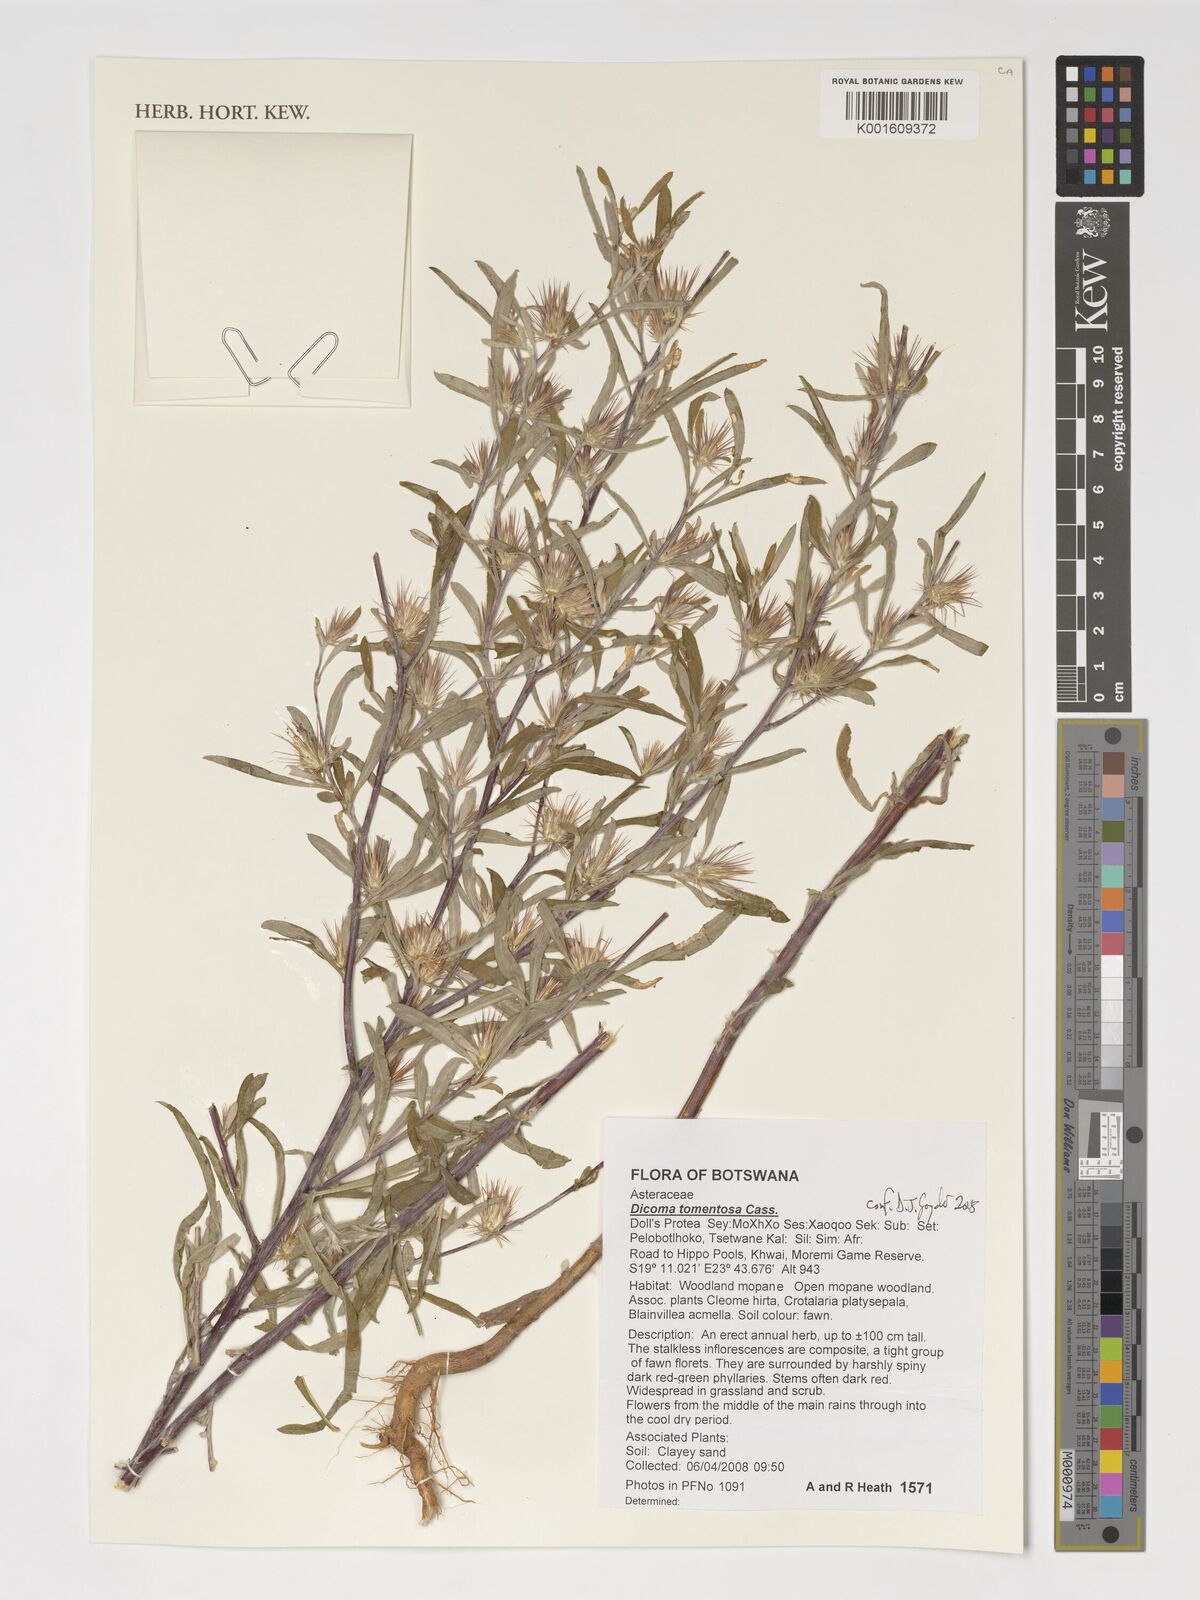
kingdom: Plantae
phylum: Tracheophyta
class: Magnoliopsida
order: Asterales
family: Asteraceae
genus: Dicoma
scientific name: Dicoma tomentosa
